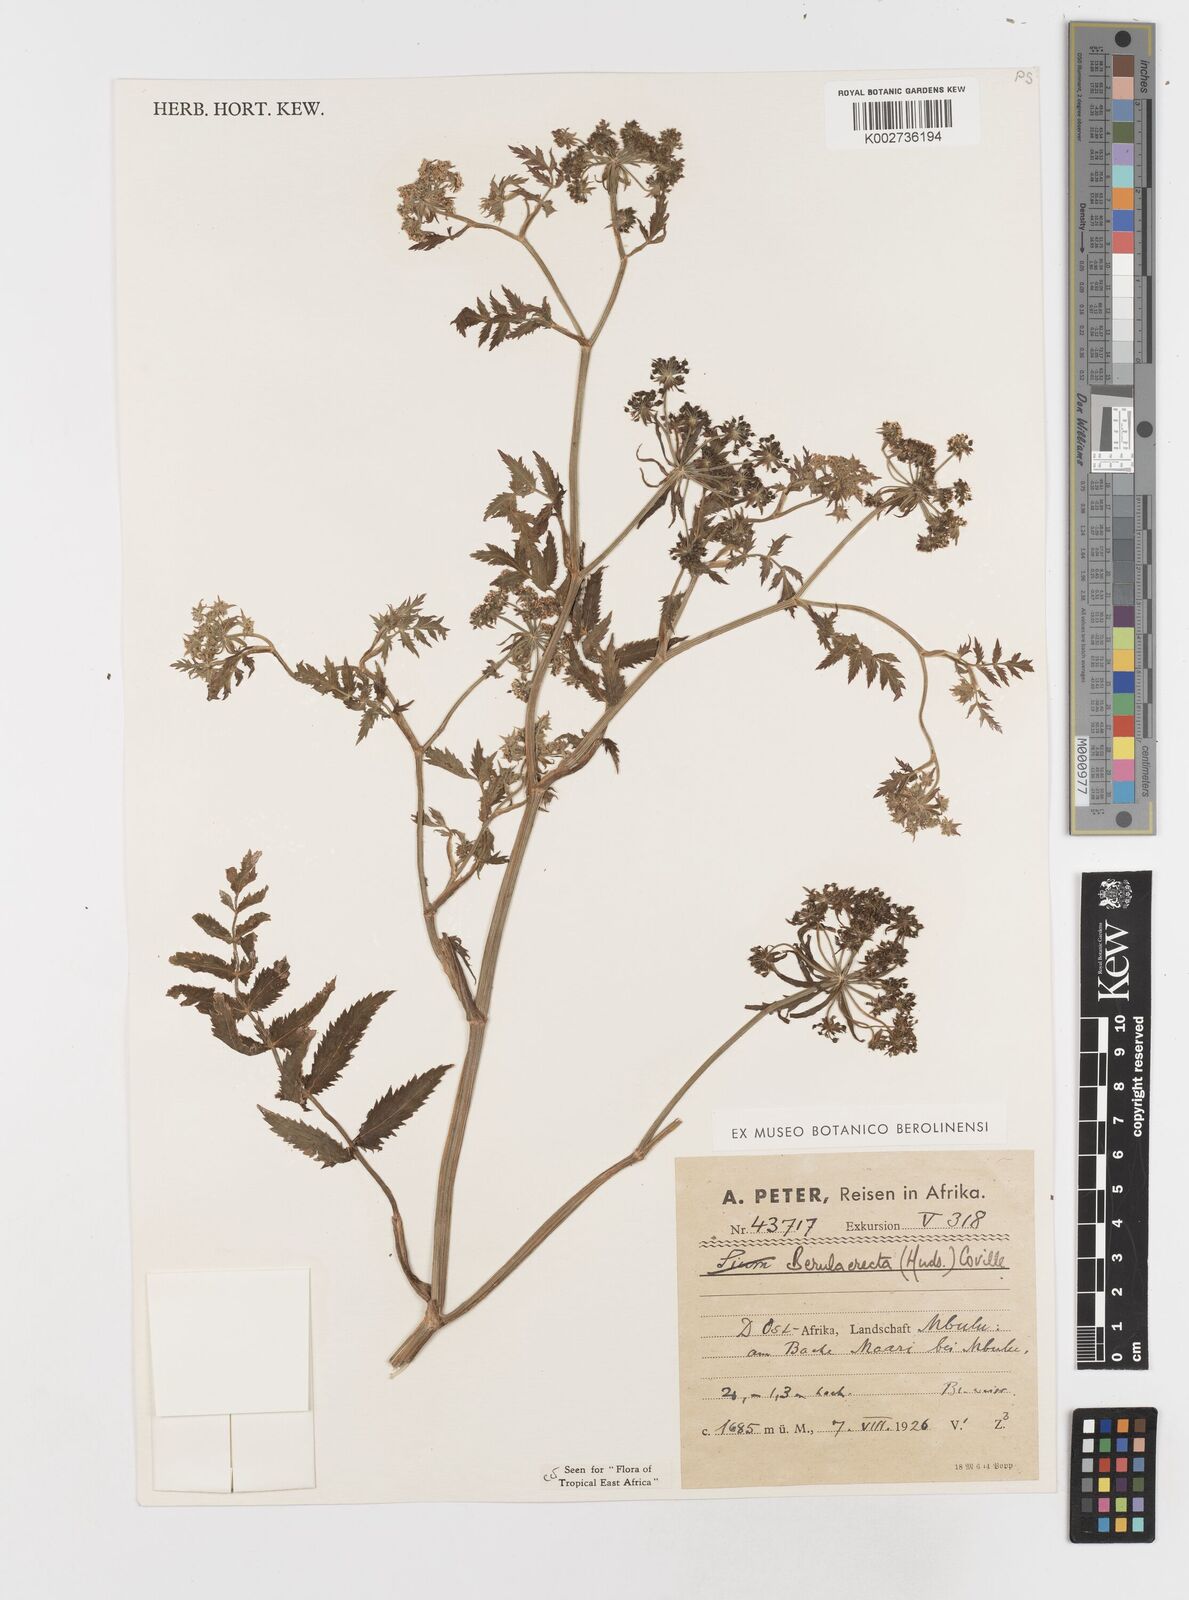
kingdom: Plantae
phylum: Tracheophyta
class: Magnoliopsida
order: Apiales
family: Apiaceae
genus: Berula
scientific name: Berula erecta
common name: Lesser water-parsnip
